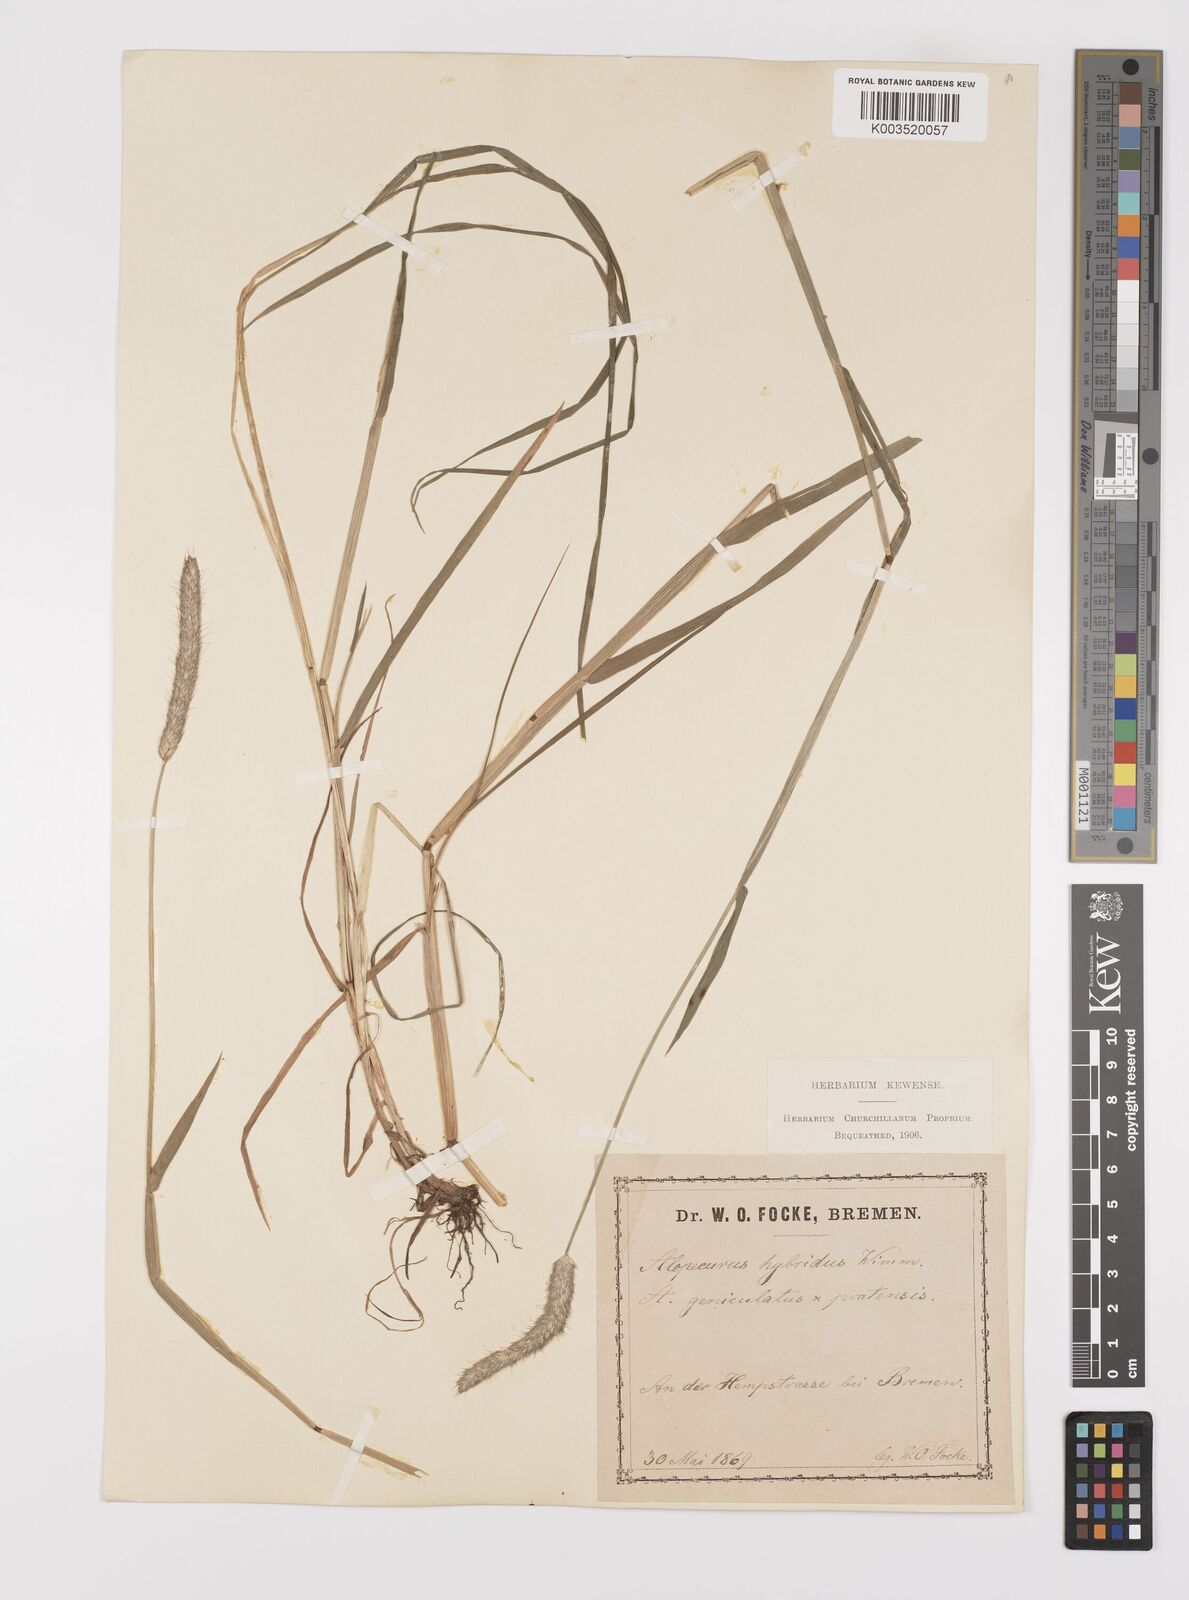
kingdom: Plantae
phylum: Tracheophyta
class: Liliopsida
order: Poales
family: Poaceae
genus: Alopecurus
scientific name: Alopecurus brachystylus
